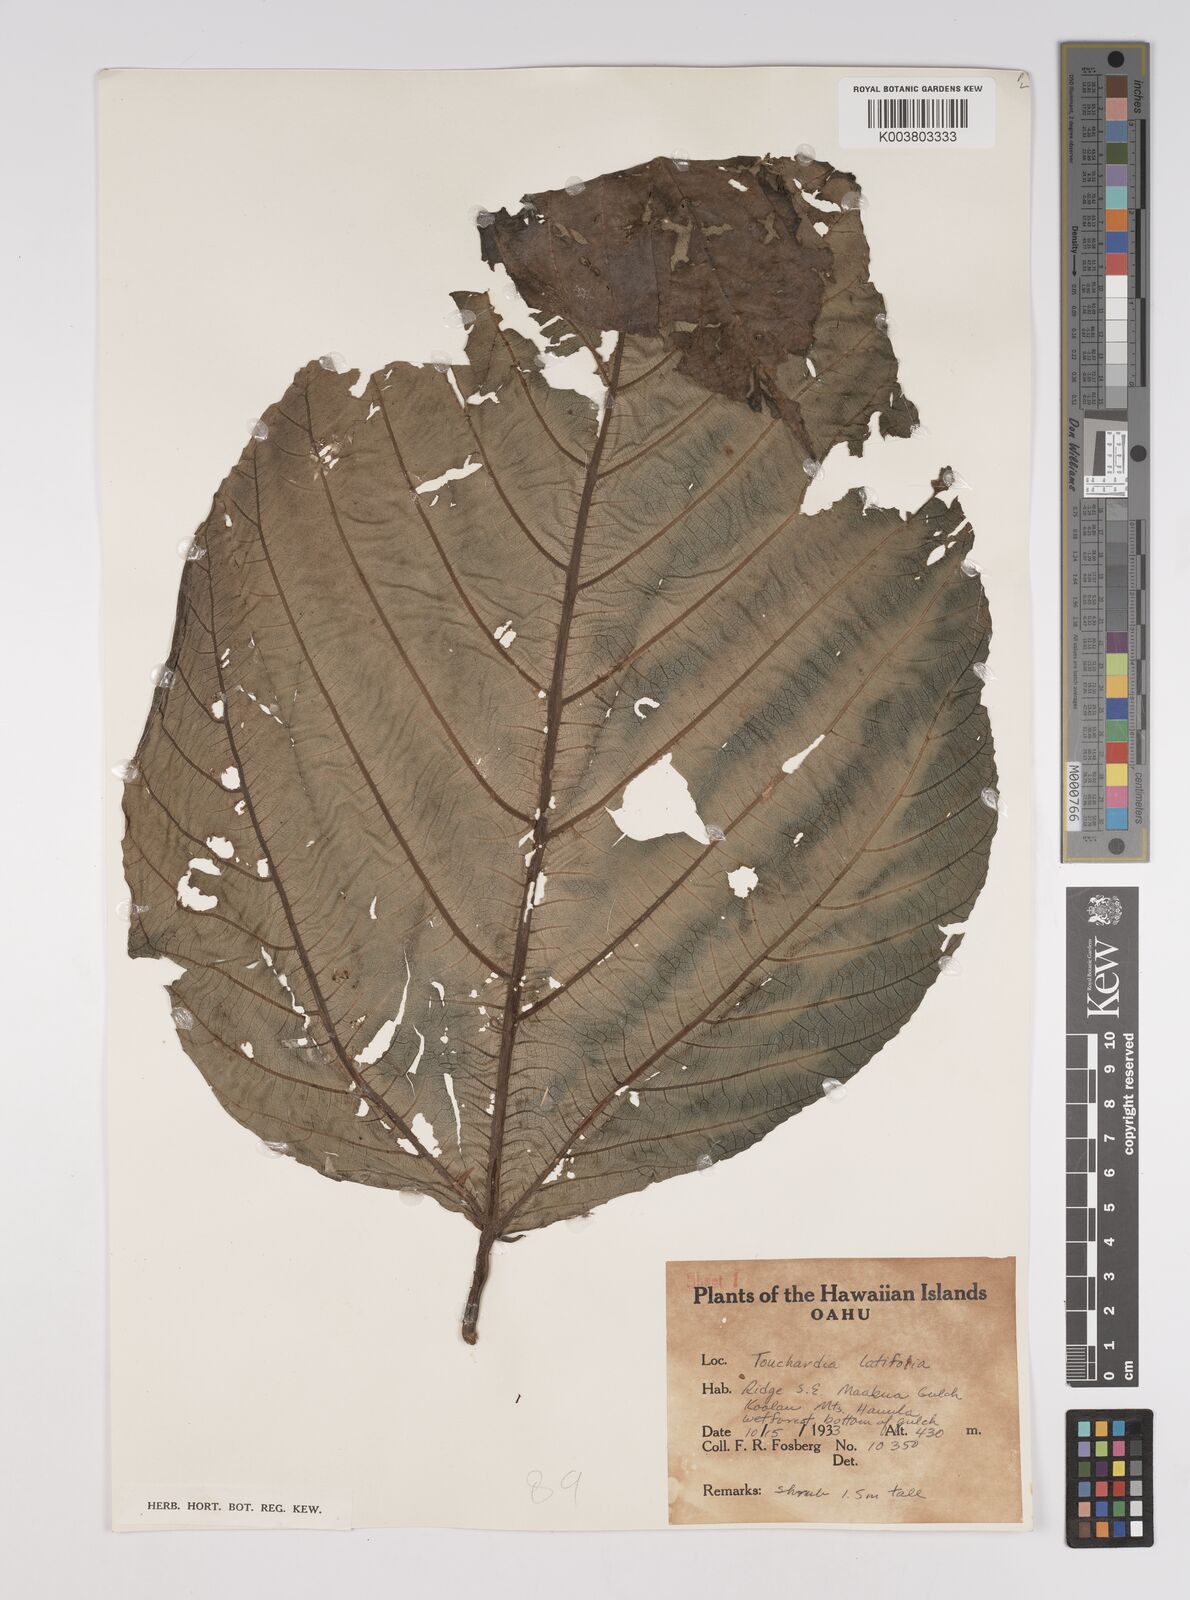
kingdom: Plantae
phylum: Tracheophyta
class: Magnoliopsida
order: Rosales
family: Urticaceae
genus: Touchardia
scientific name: Touchardia latifolia
